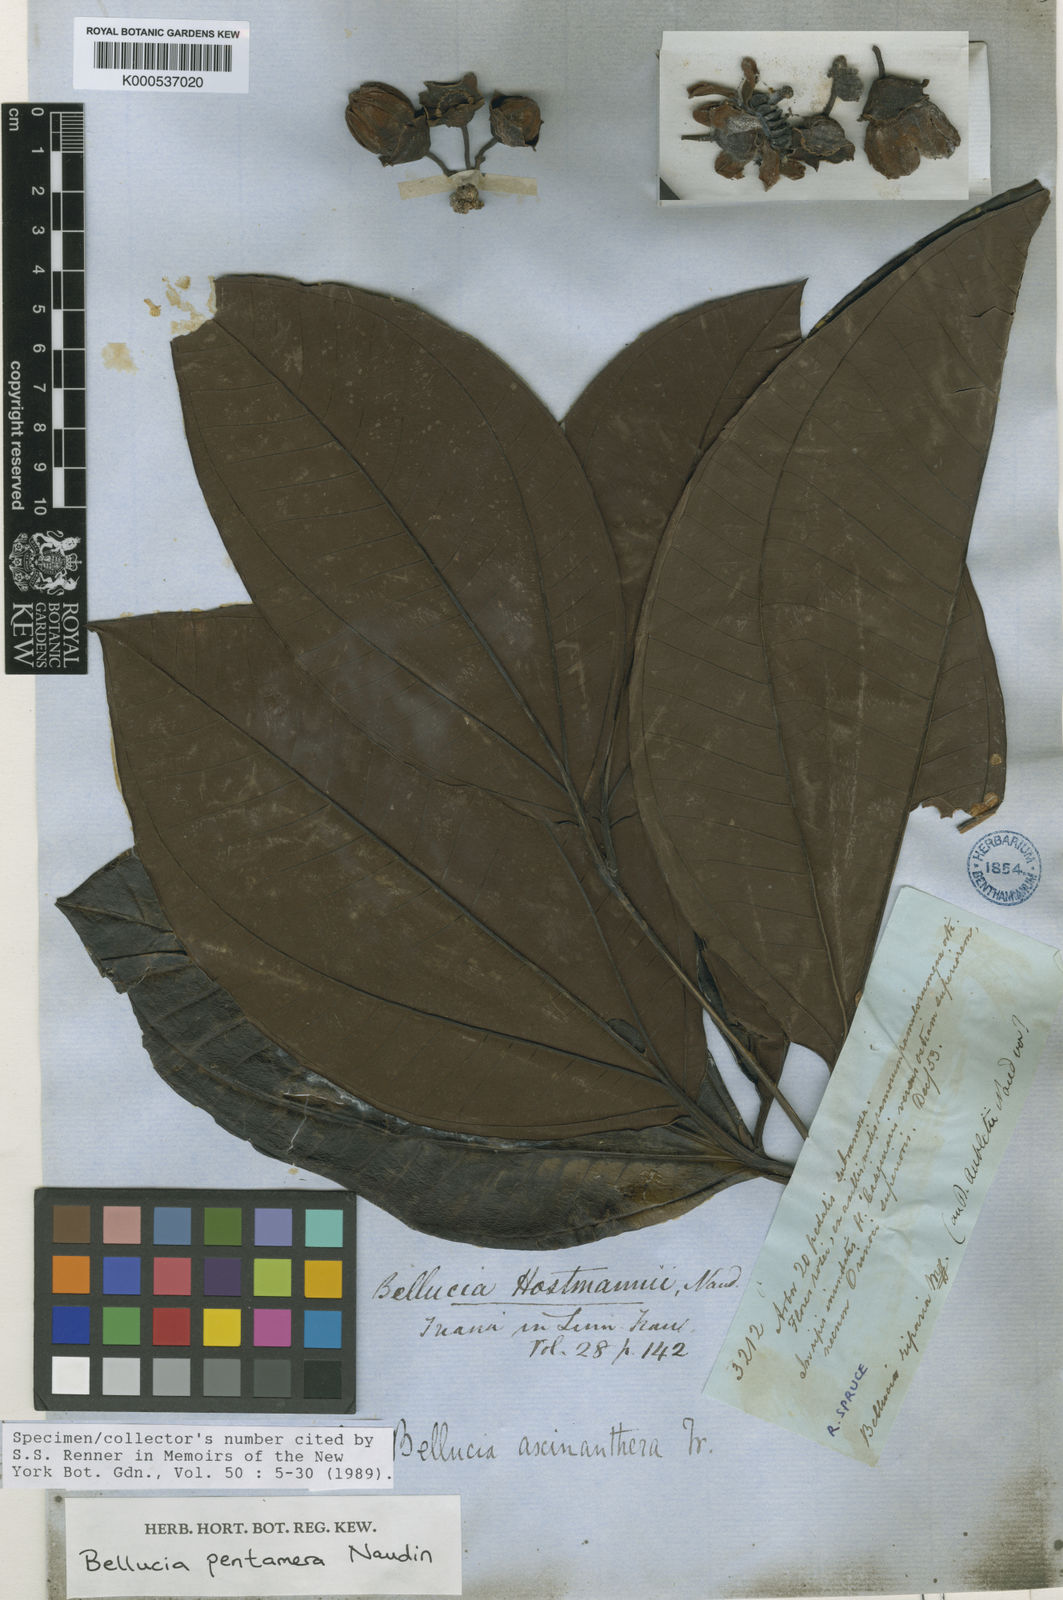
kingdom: Plantae
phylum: Tracheophyta
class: Magnoliopsida
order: Myrtales
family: Melastomataceae
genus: Bellucia
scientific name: Bellucia pentamera
